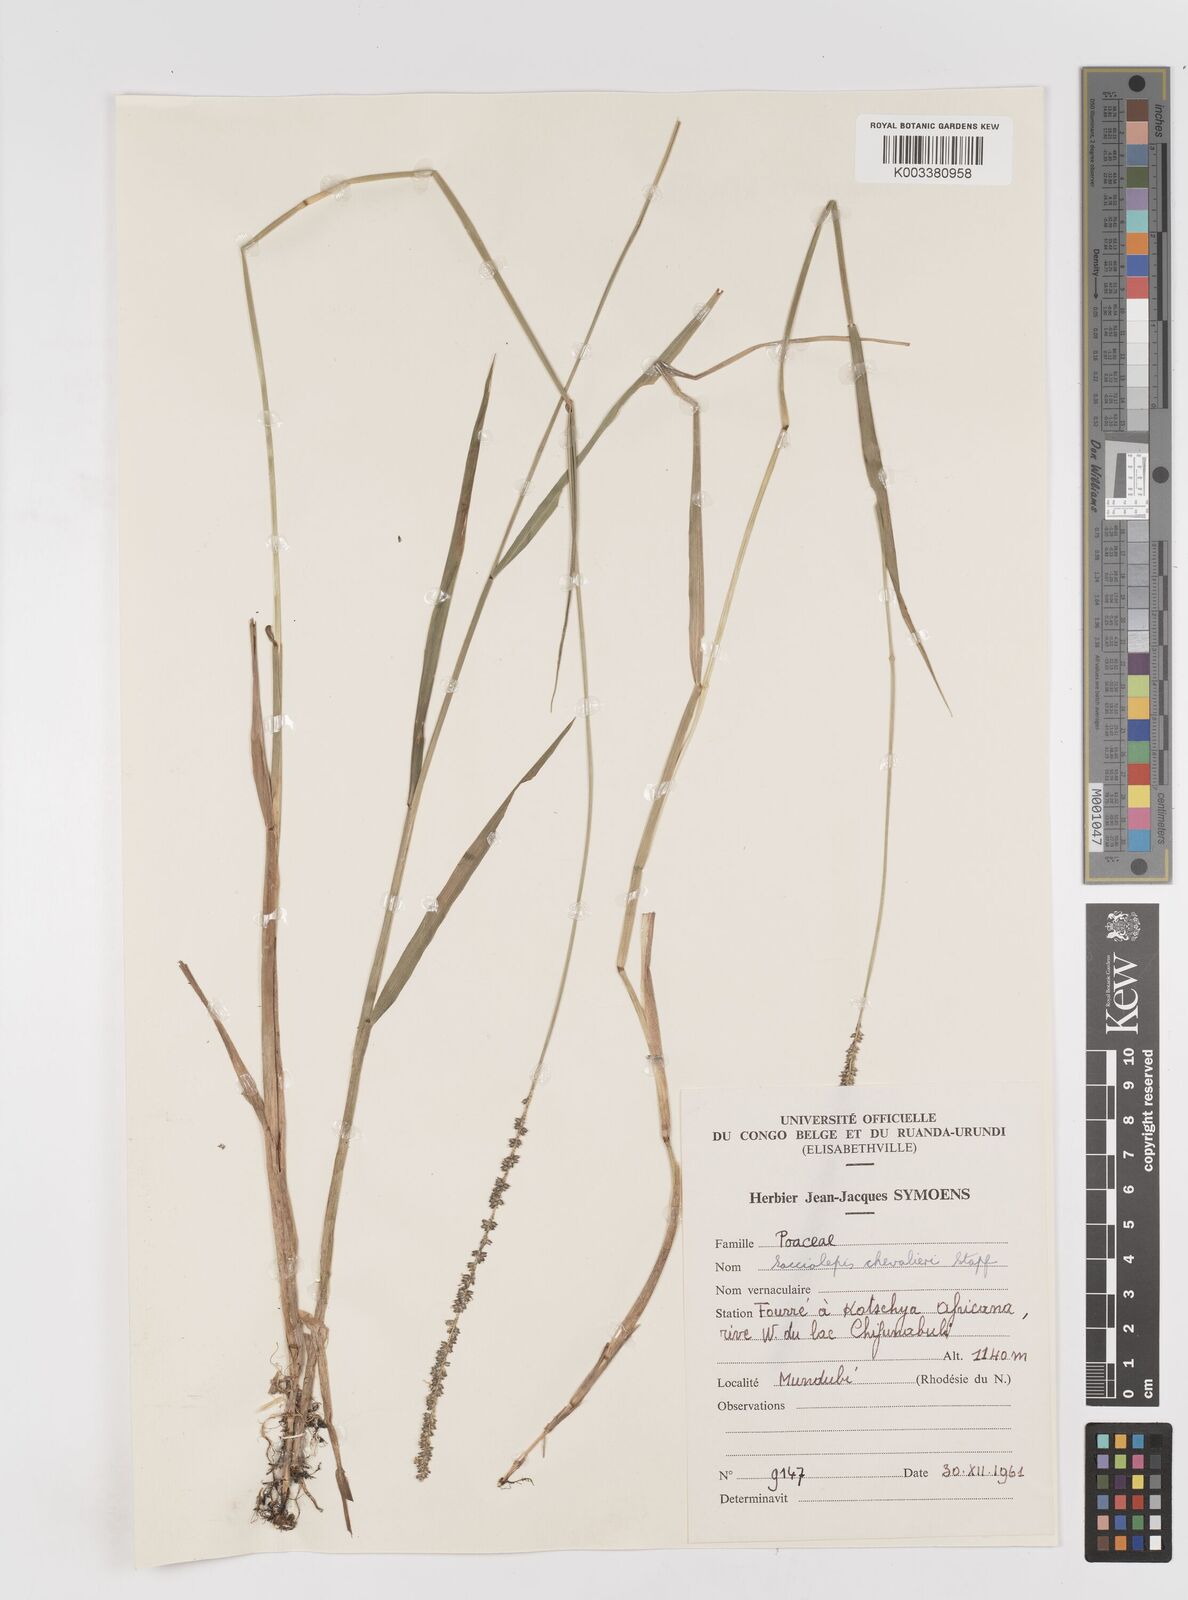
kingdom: Plantae
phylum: Tracheophyta
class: Liliopsida
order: Poales
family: Poaceae
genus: Sacciolepis
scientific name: Sacciolepis typhura
